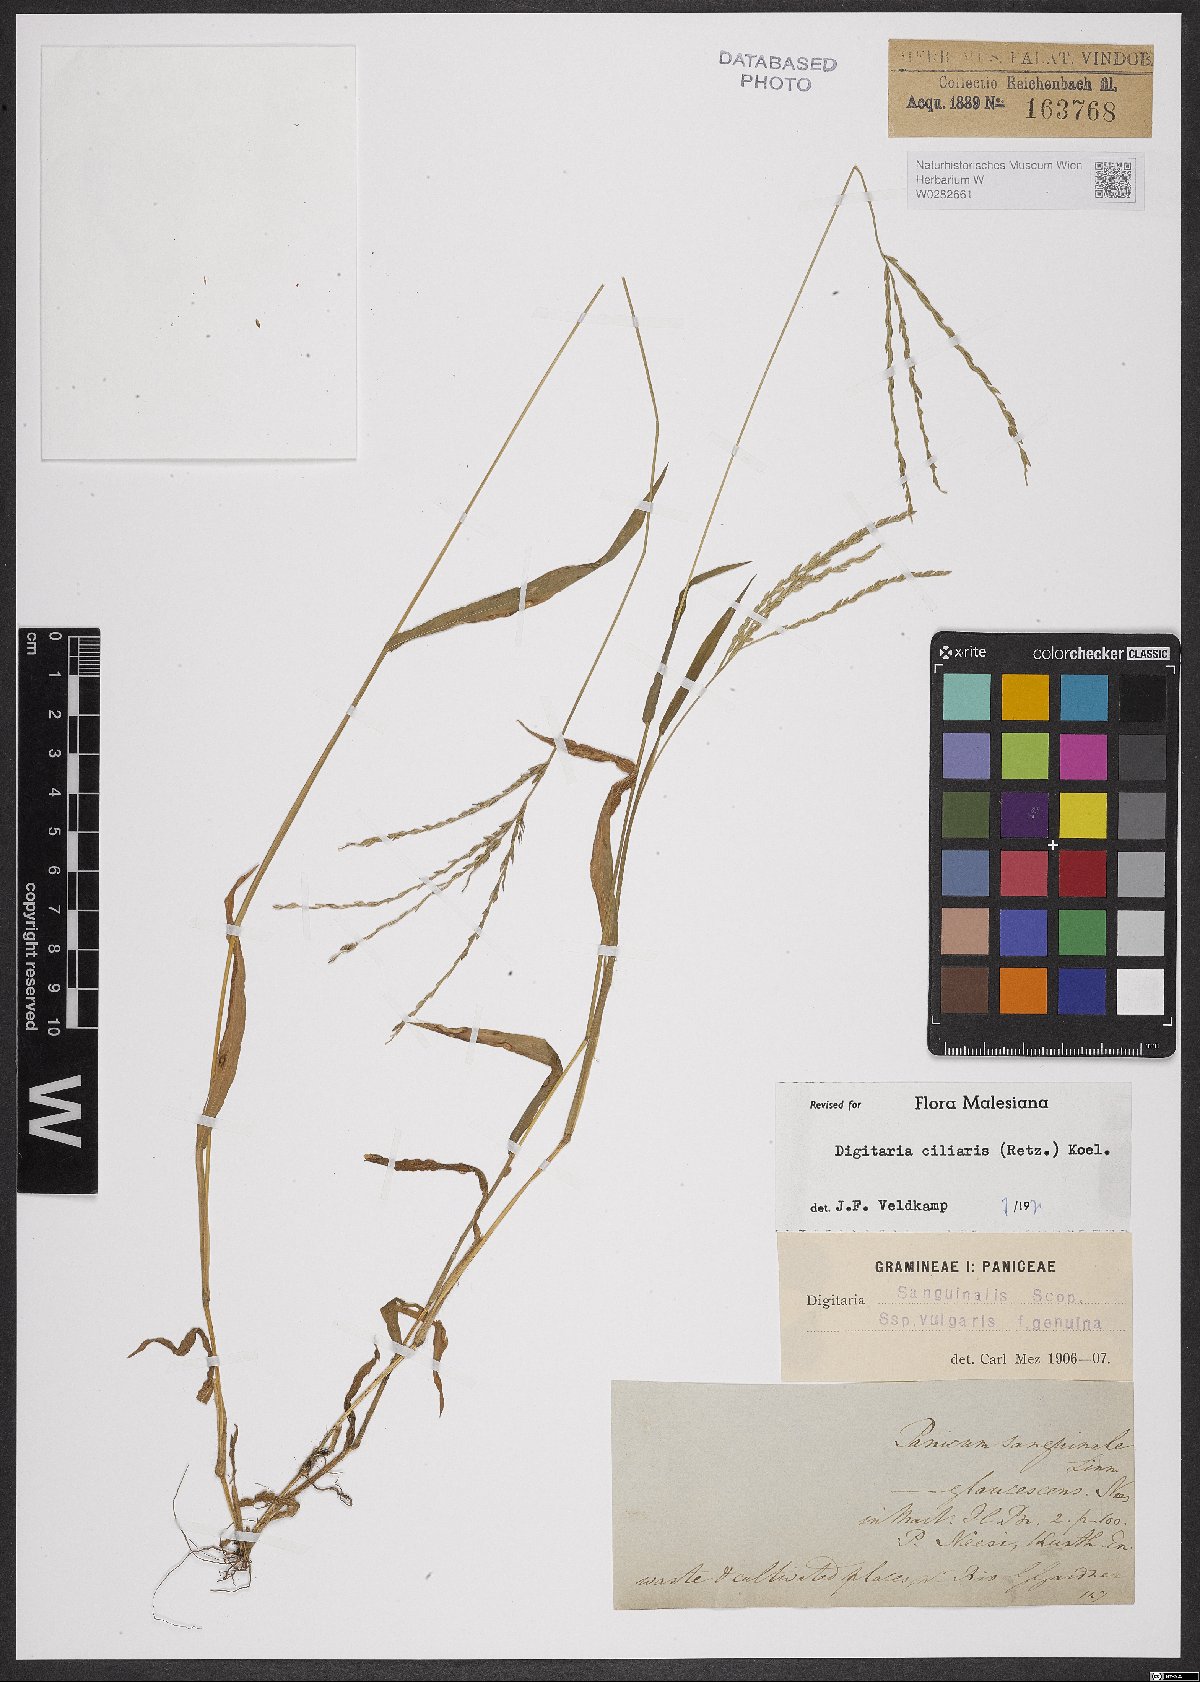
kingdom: Plantae
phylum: Tracheophyta
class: Liliopsida
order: Poales
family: Poaceae
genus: Digitaria
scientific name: Digitaria ciliaris
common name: Tropical finger-grass
